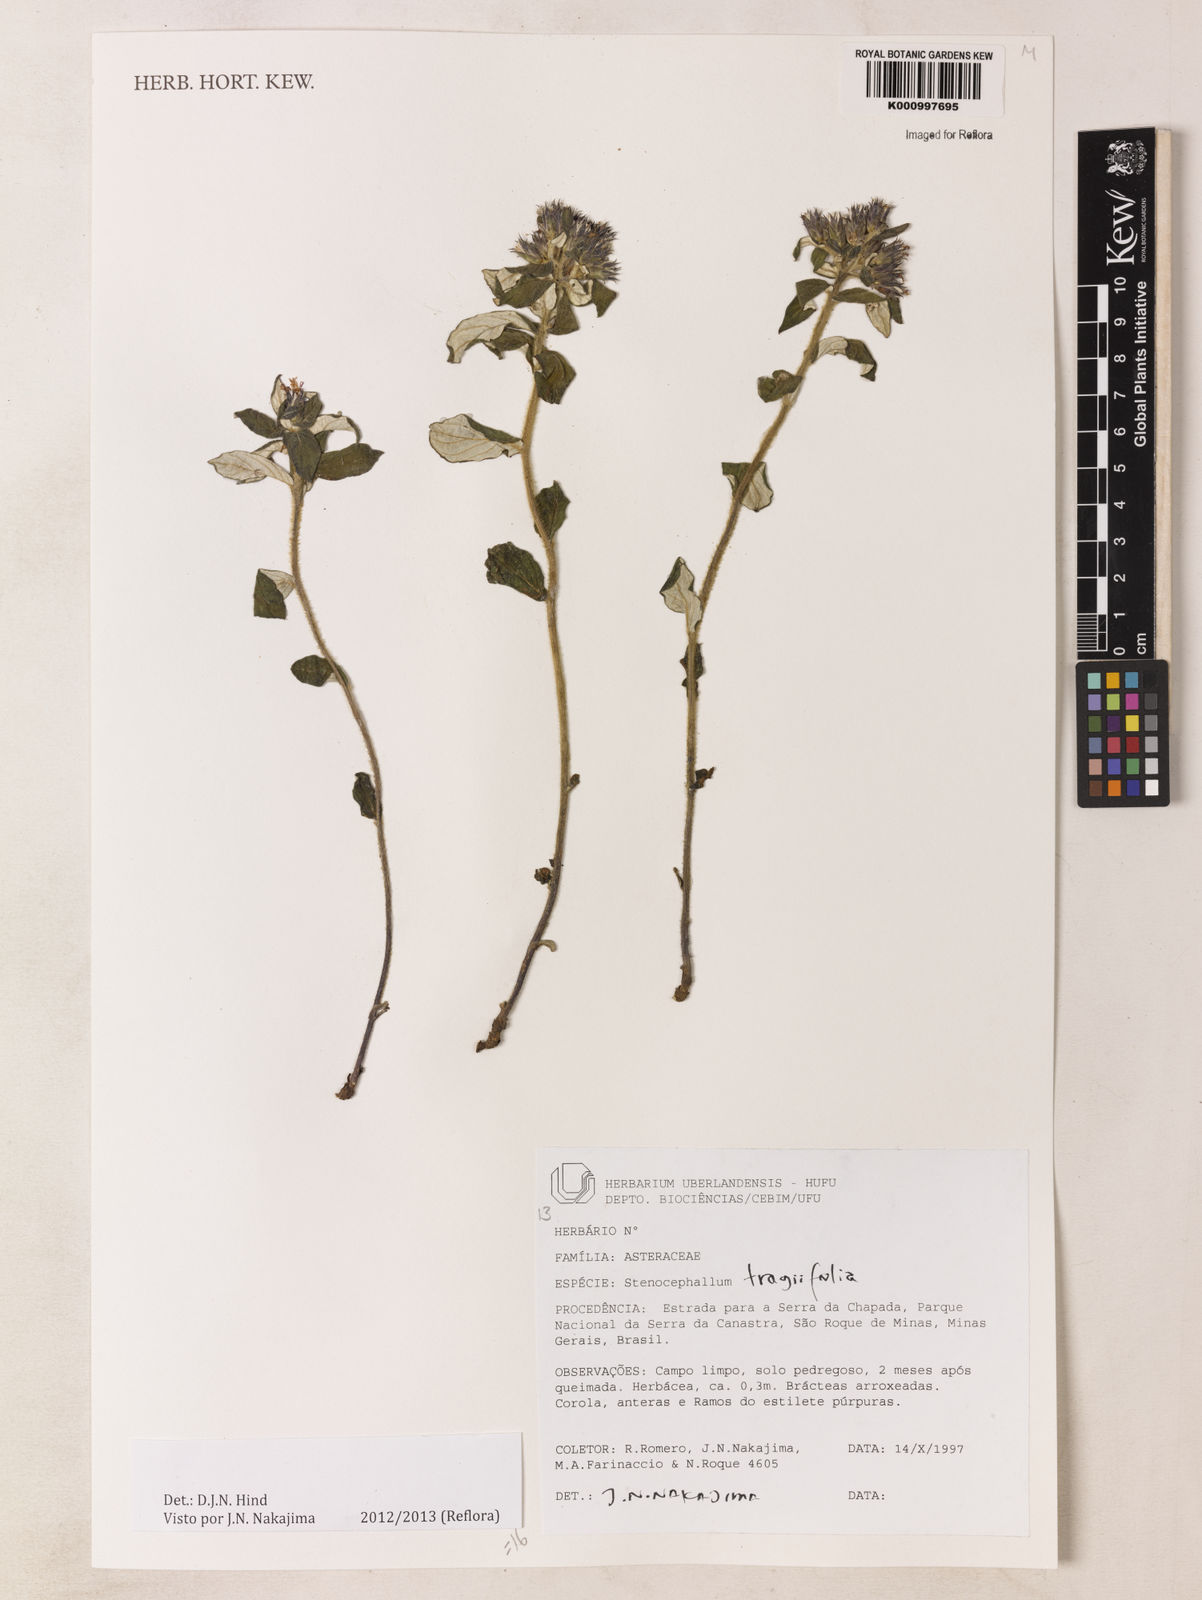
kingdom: Plantae
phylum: Tracheophyta
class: Magnoliopsida
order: Asterales
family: Asteraceae
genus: Vernonia
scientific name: Vernonia
